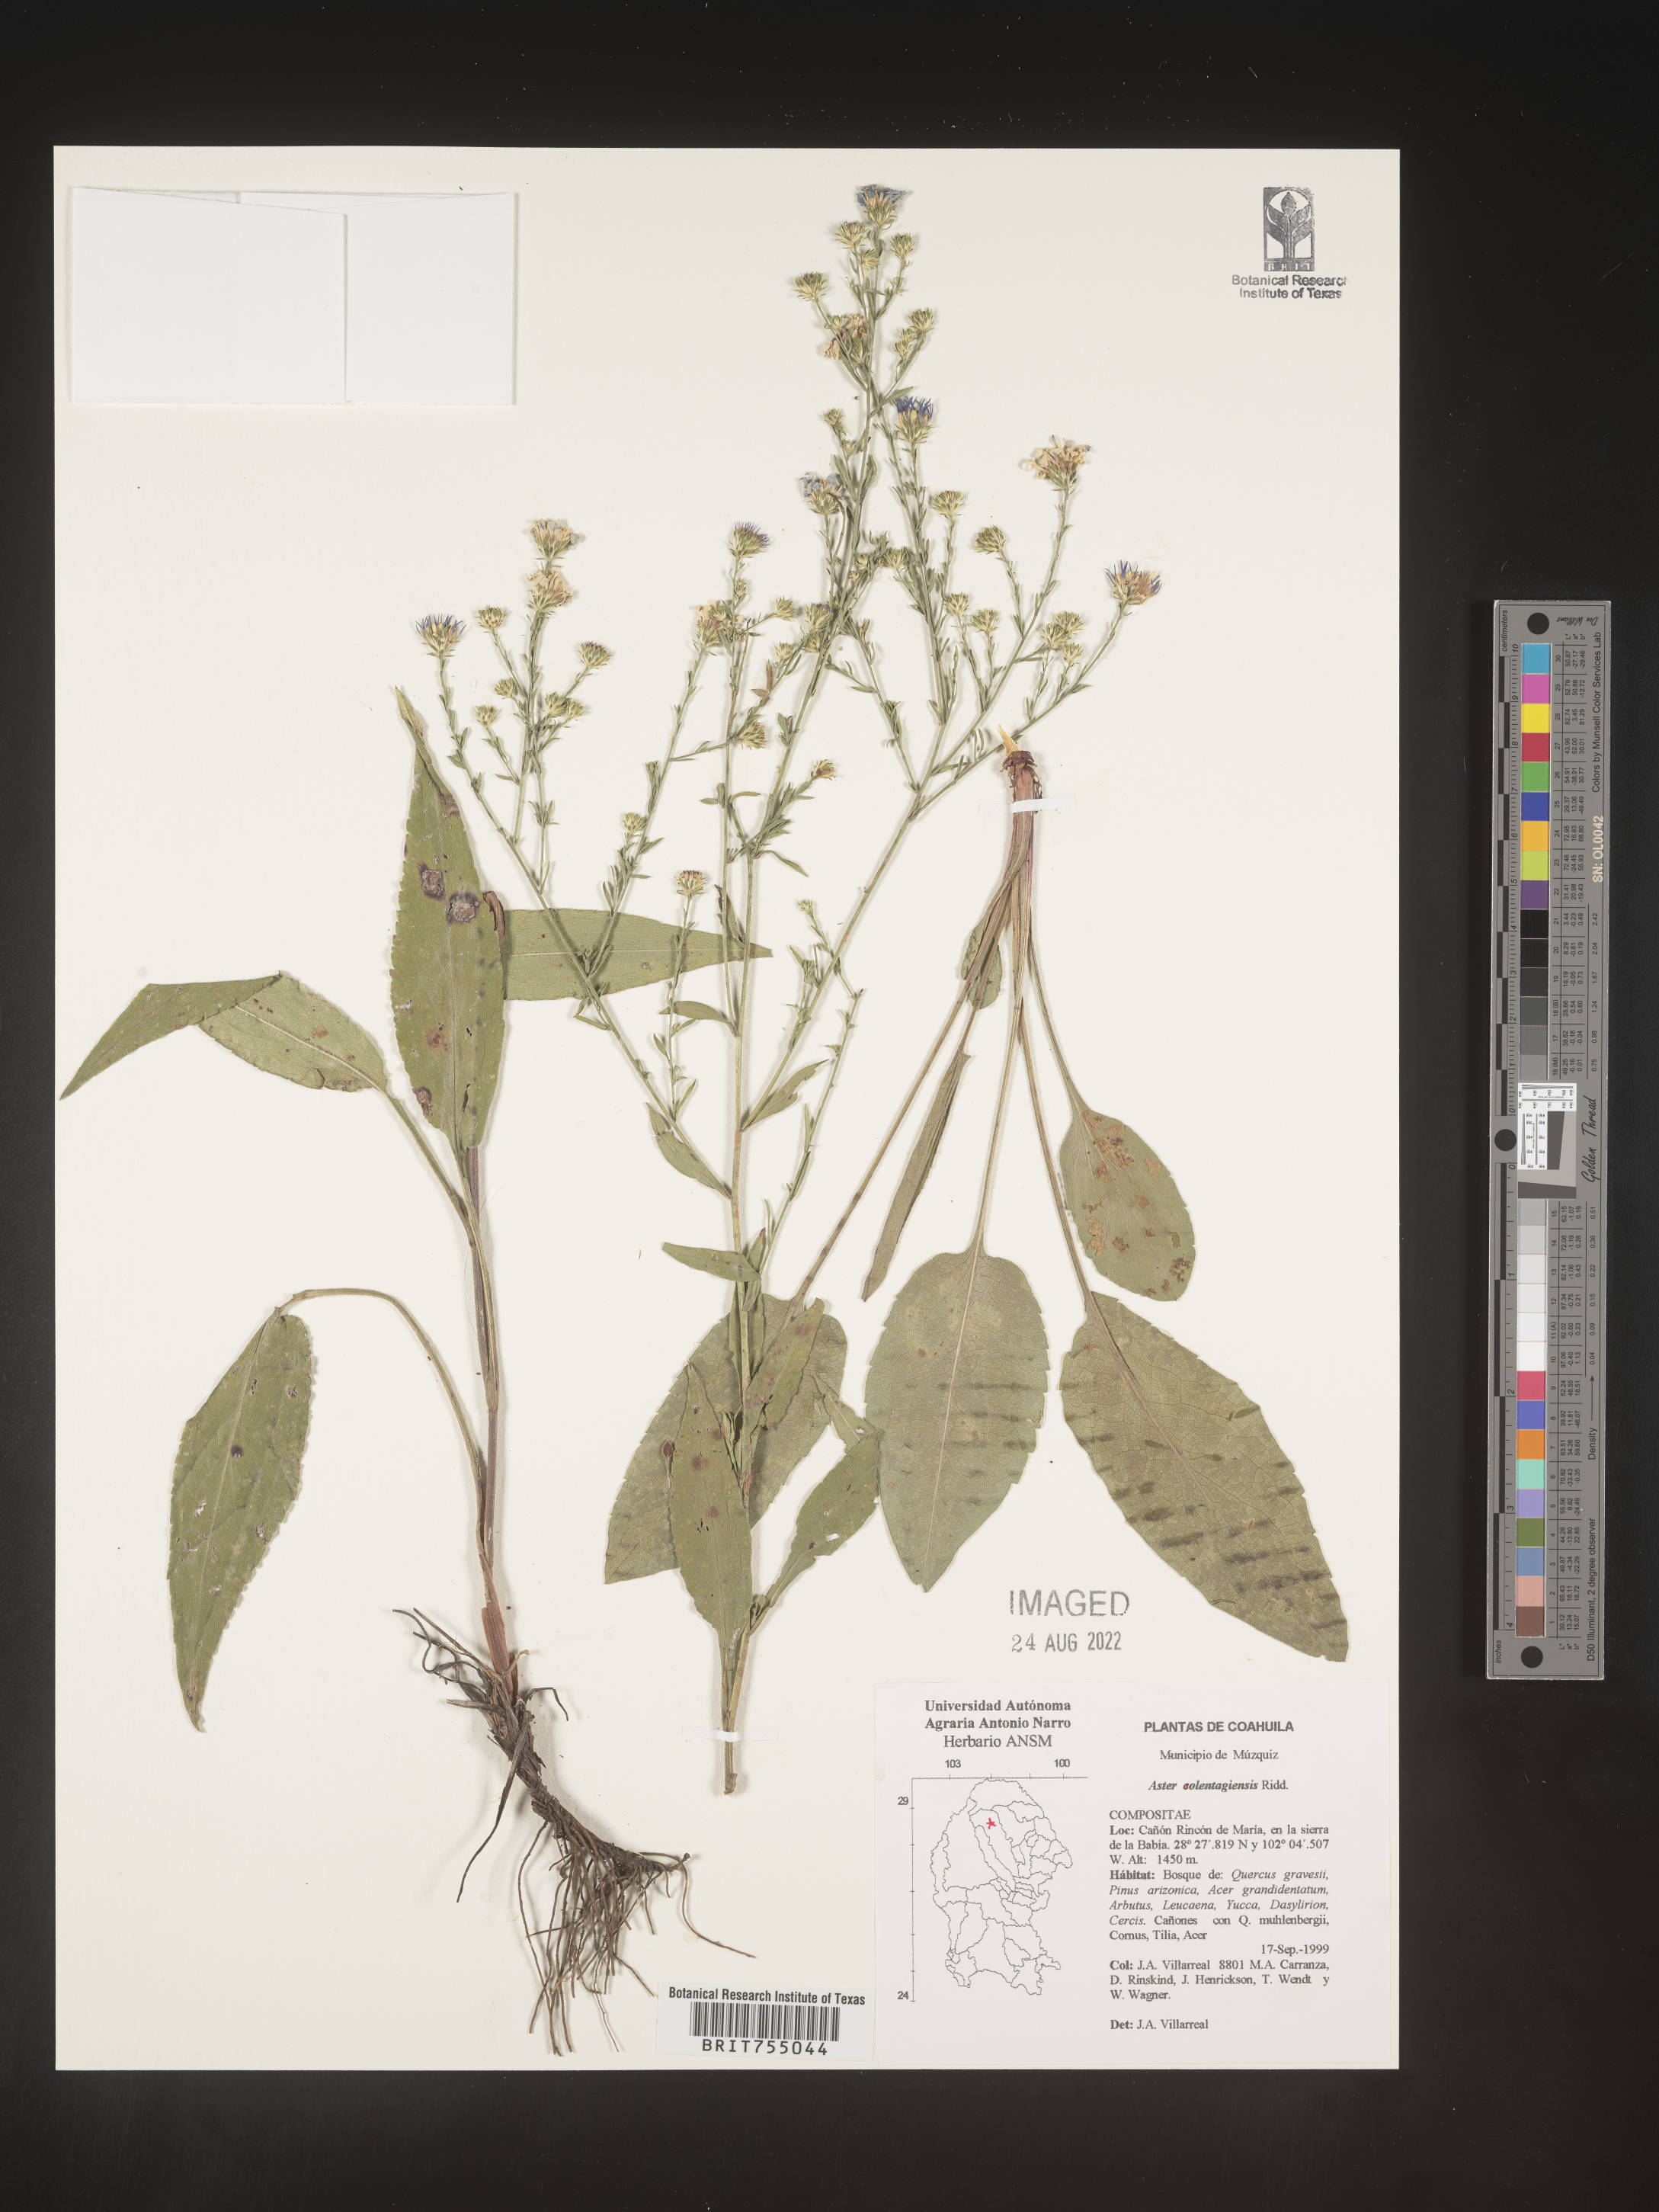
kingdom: Plantae
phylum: Tracheophyta
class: Magnoliopsida
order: Asterales
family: Asteraceae
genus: Symphyotrichum
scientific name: Symphyotrichum oolentangiense
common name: Azure aster
